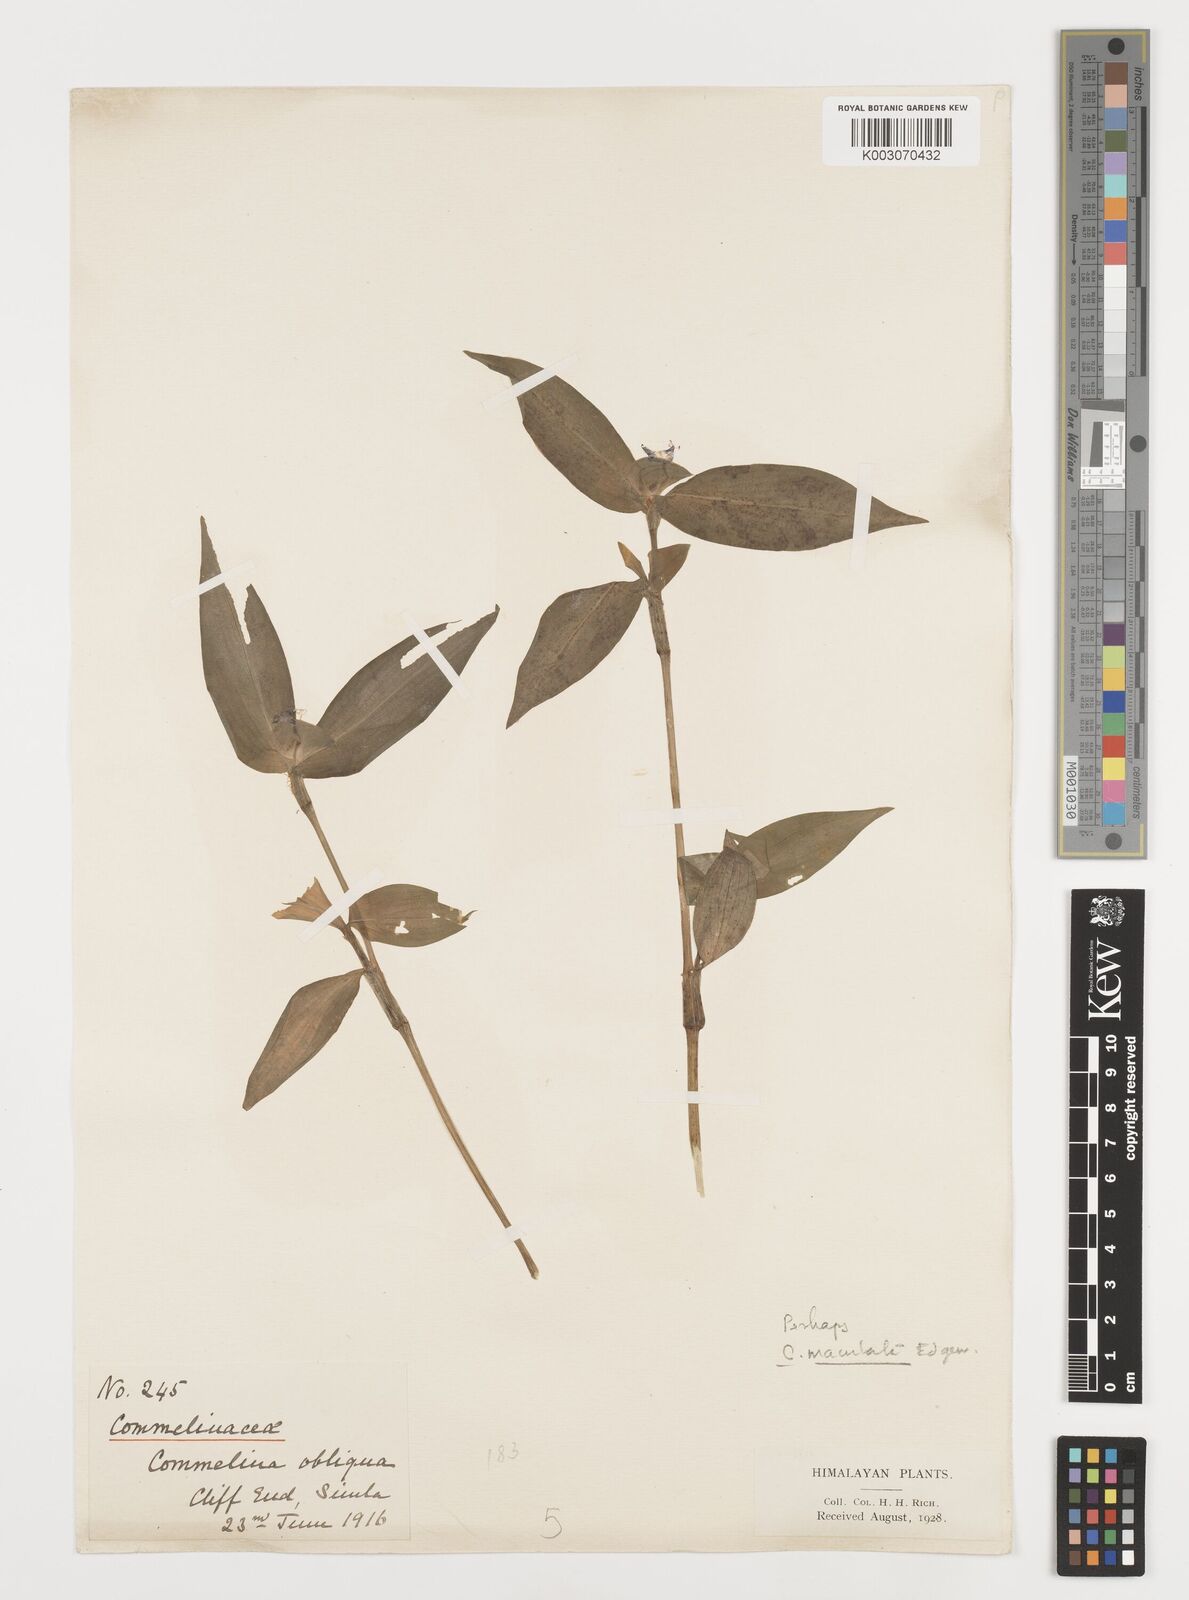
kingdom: Plantae
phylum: Tracheophyta
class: Liliopsida
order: Commelinales
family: Commelinaceae
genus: Commelina
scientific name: Commelina maculata
